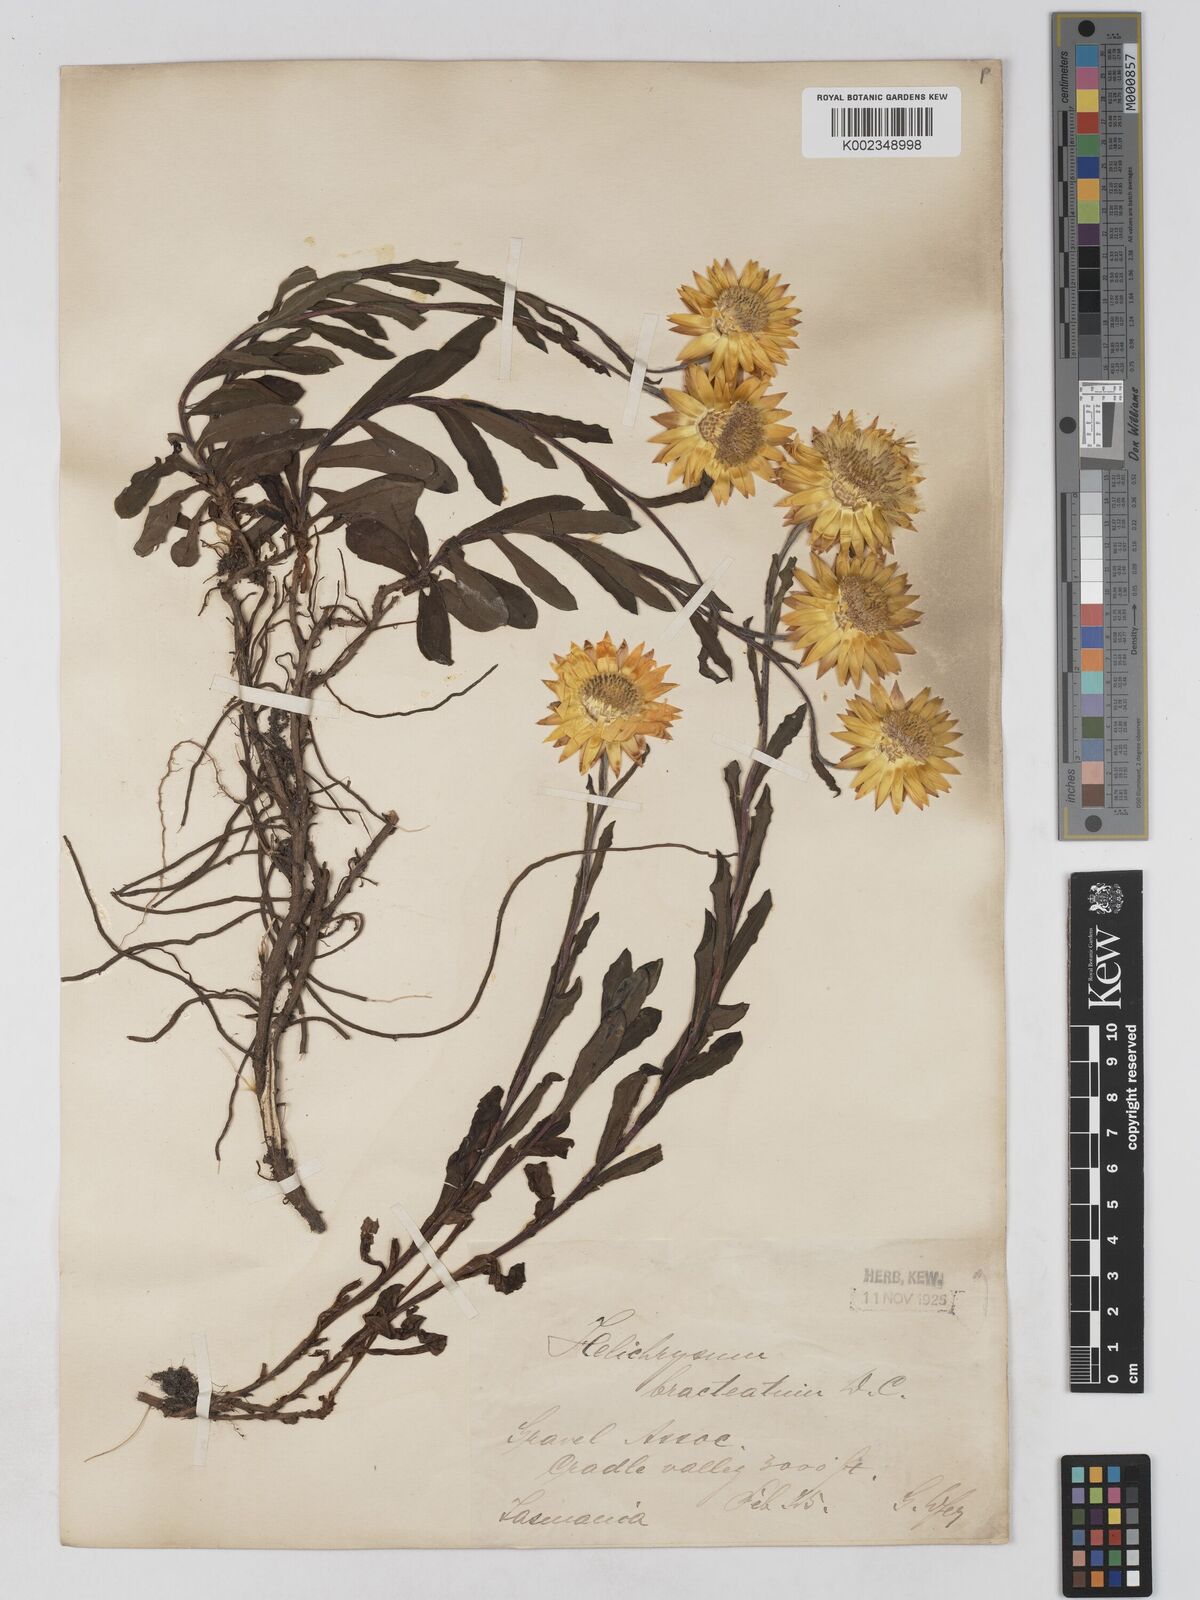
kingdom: Plantae
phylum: Tracheophyta
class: Magnoliopsida
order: Asterales
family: Asteraceae
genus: Xerochrysum
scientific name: Xerochrysum bracteatum
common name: Bracted strawflower
